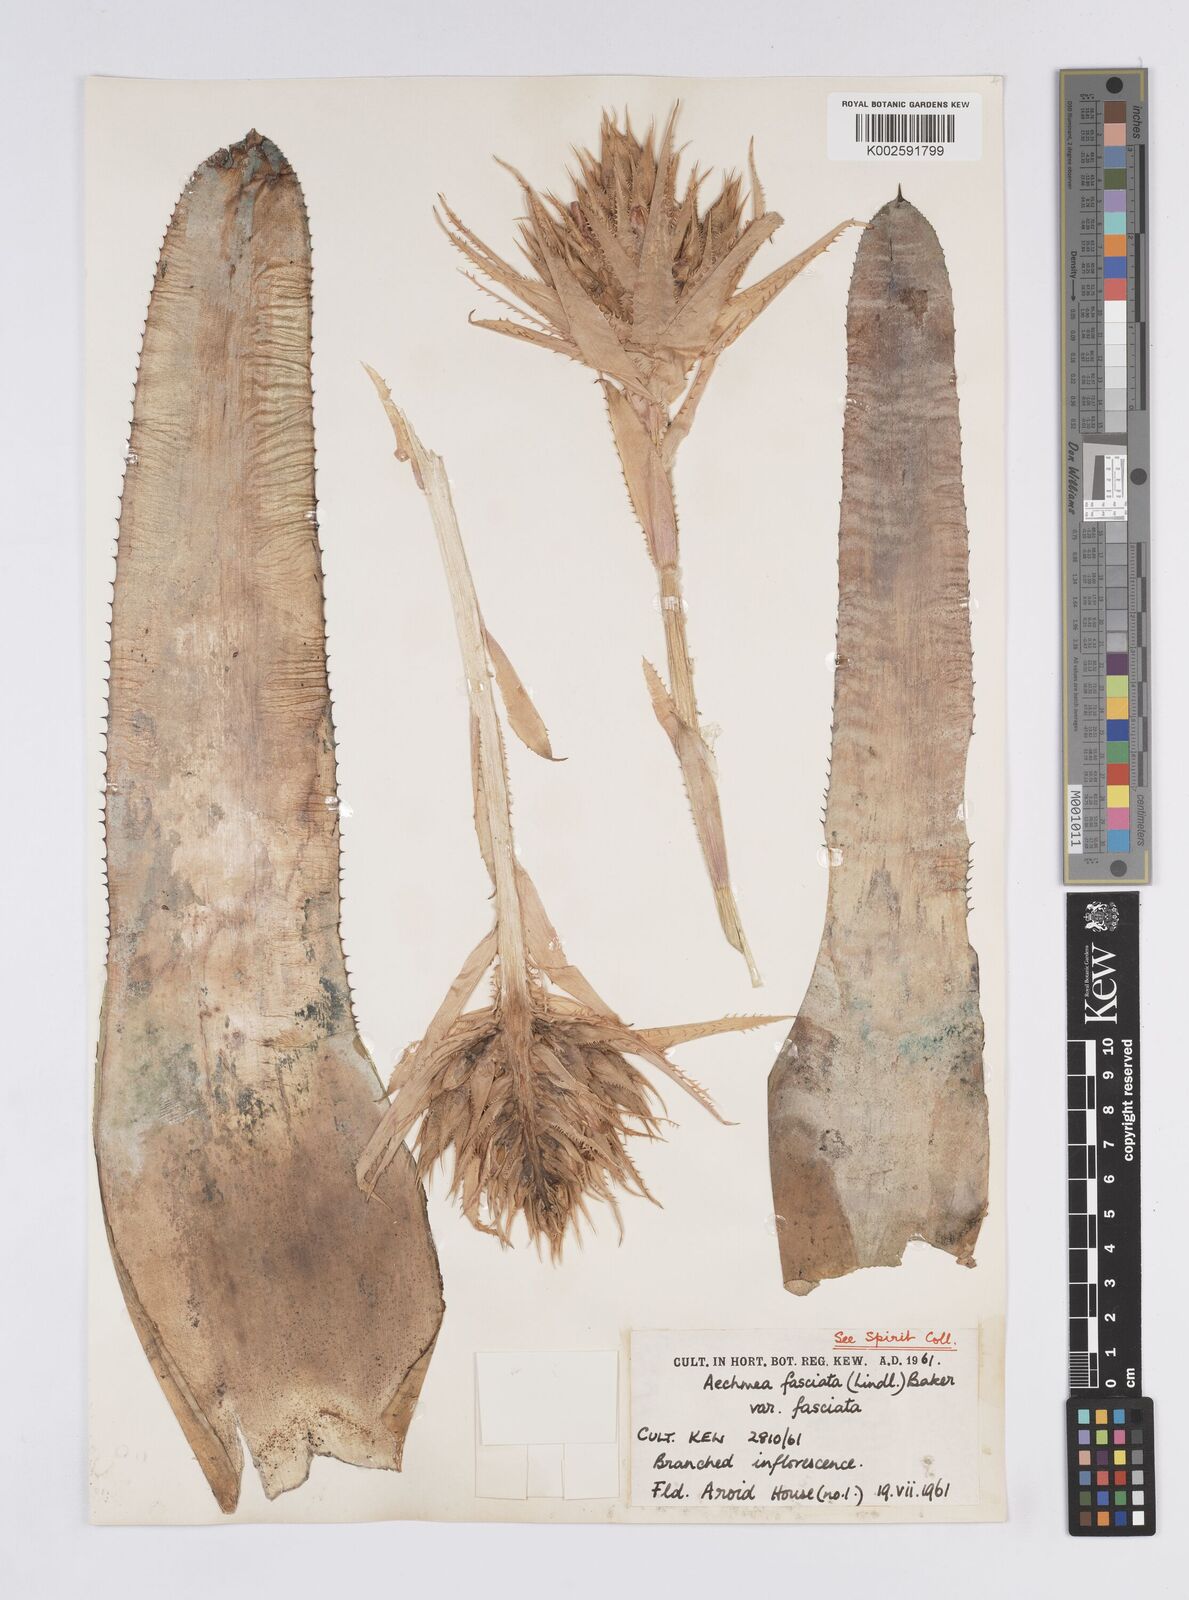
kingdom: Plantae
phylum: Tracheophyta
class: Liliopsida
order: Poales
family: Bromeliaceae
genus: Aechmea
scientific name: Aechmea fasciata
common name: Urnplant
